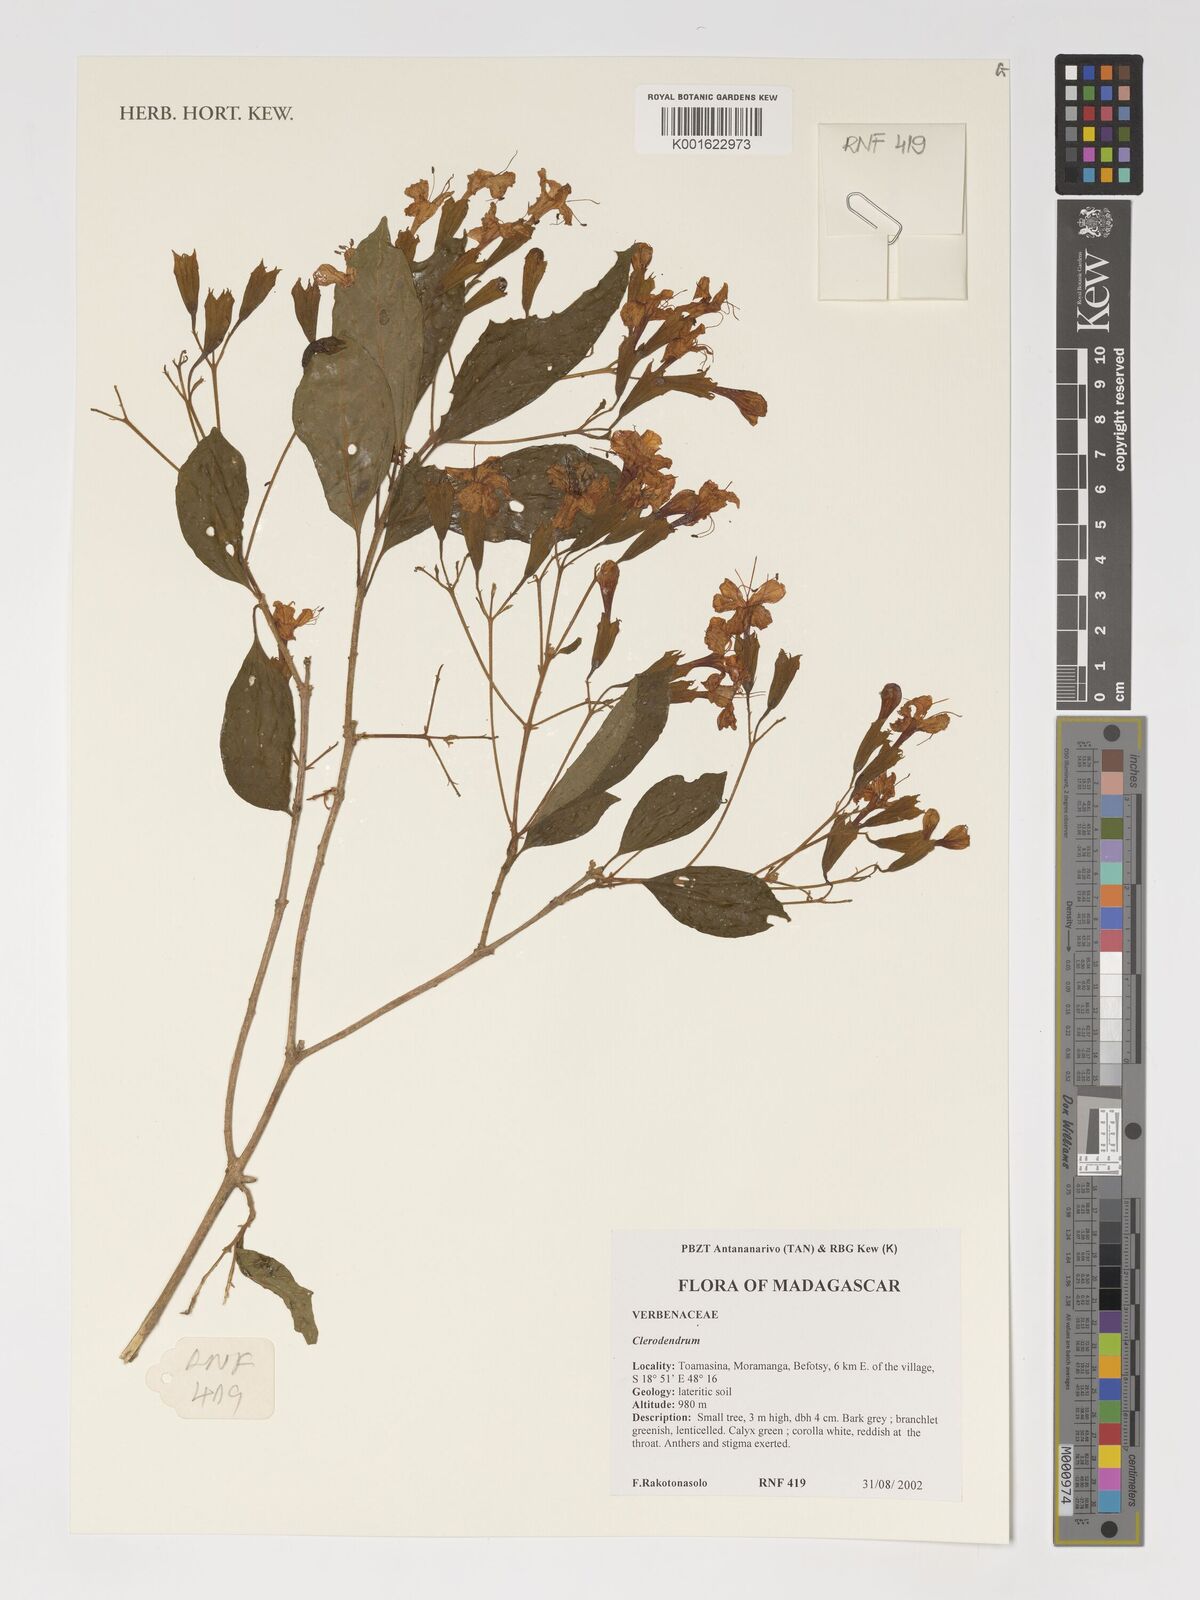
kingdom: Plantae
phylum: Tracheophyta
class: Magnoliopsida
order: Lamiales
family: Lamiaceae
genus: Clerodendrum
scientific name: Clerodendrum
